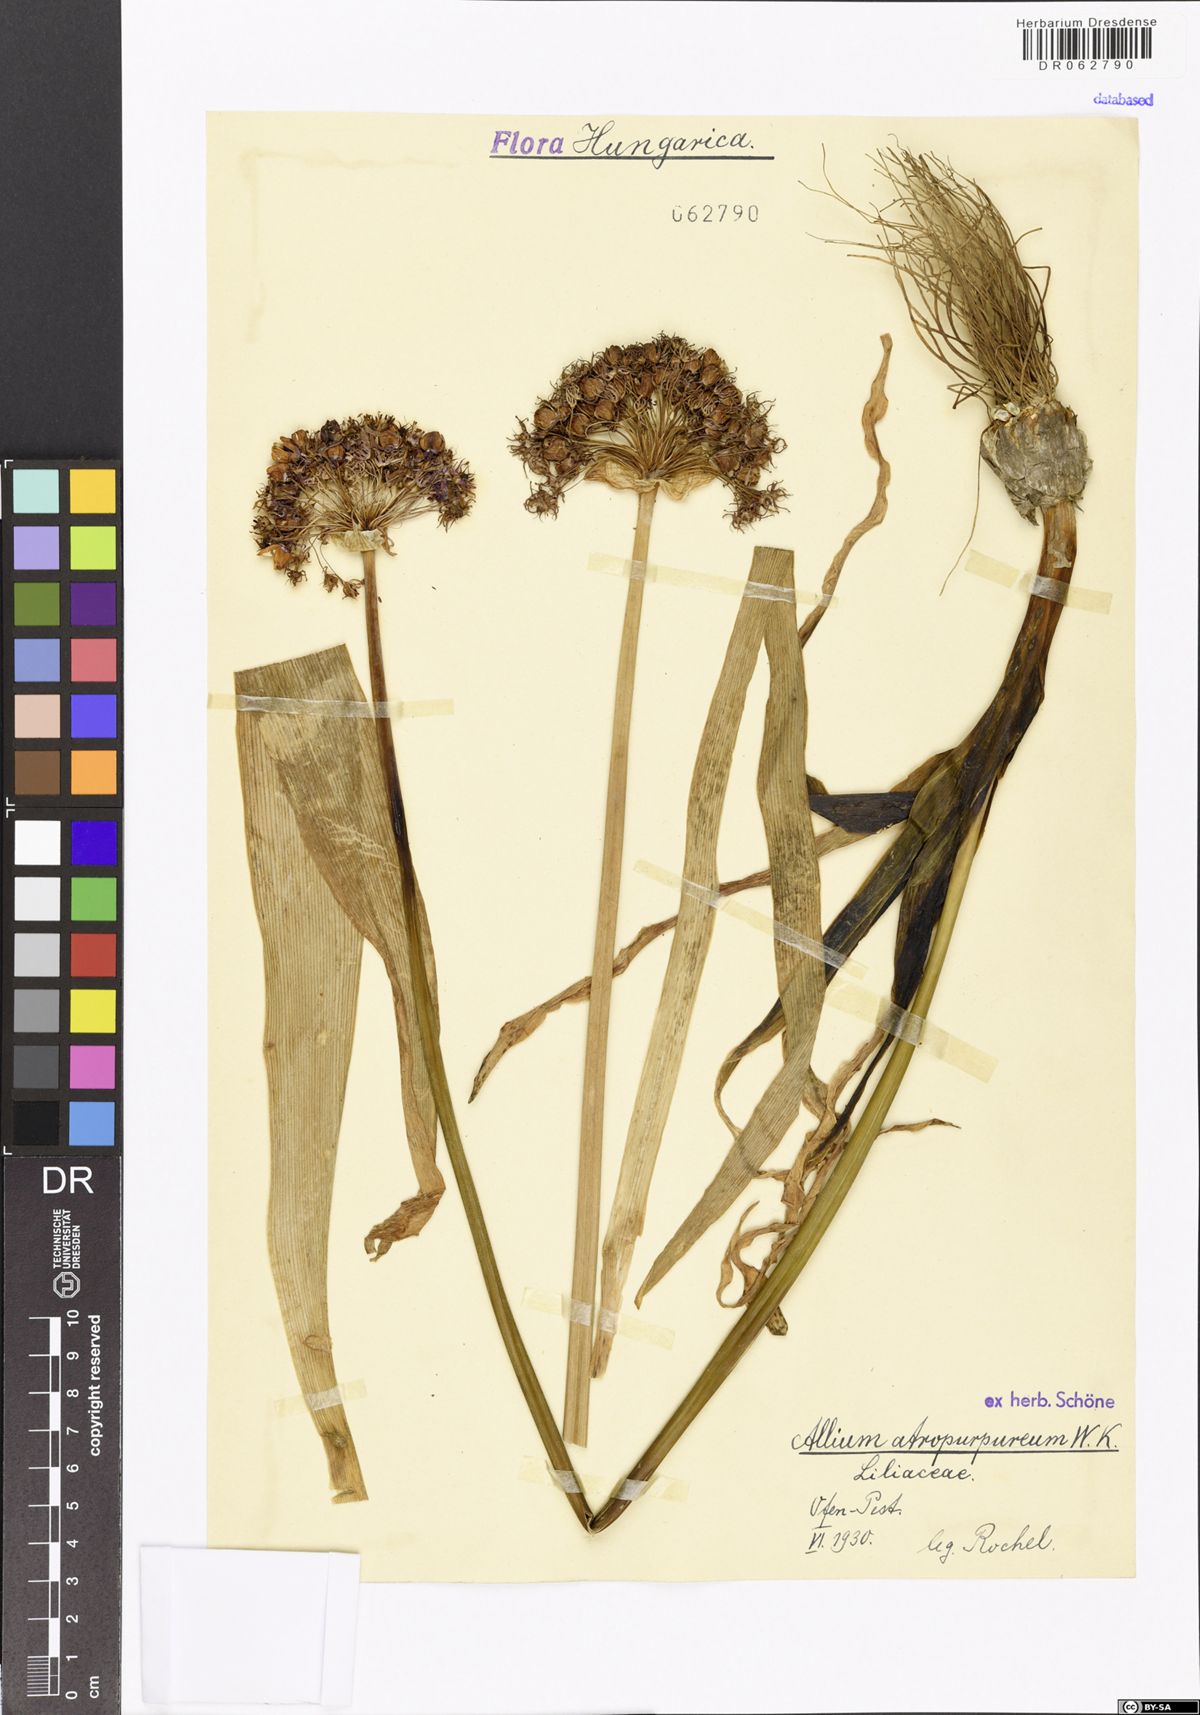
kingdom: Plantae
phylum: Tracheophyta
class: Liliopsida
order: Asparagales
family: Amaryllidaceae
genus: Allium
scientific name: Allium atropurpureum
